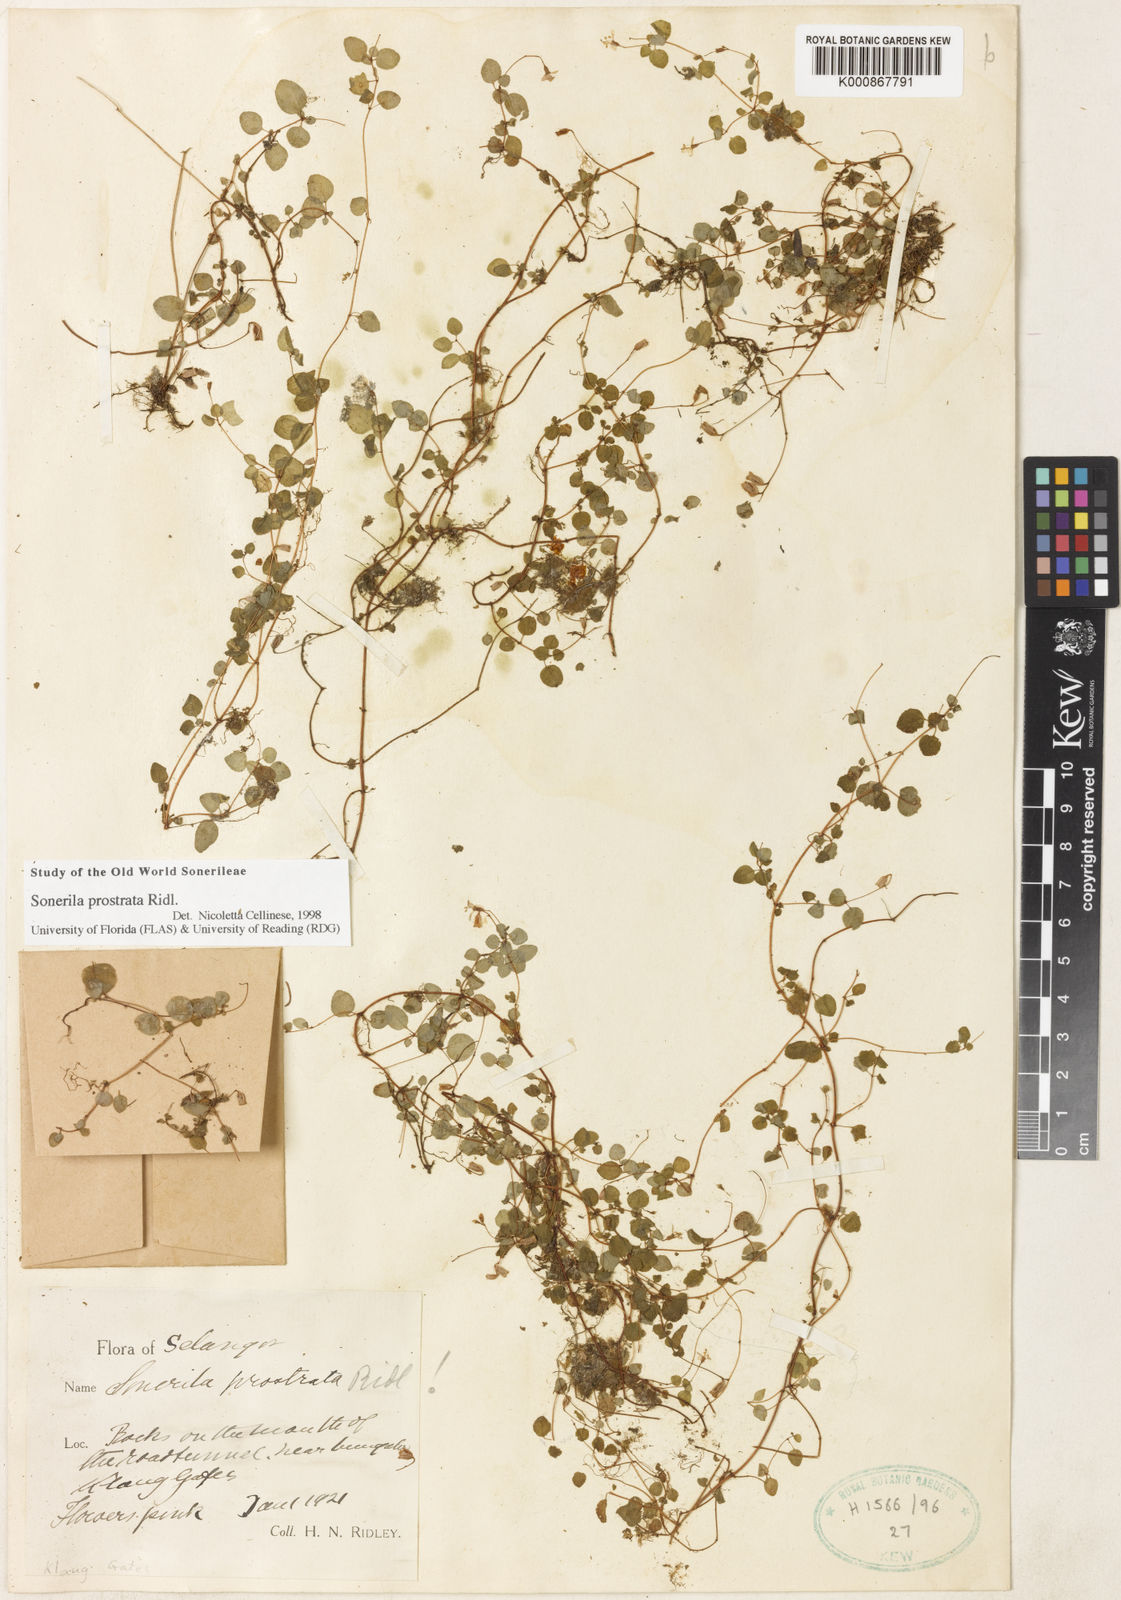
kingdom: Plantae
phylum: Tracheophyta
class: Magnoliopsida
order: Myrtales
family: Melastomataceae
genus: Sonerila
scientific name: Sonerila prostrata
